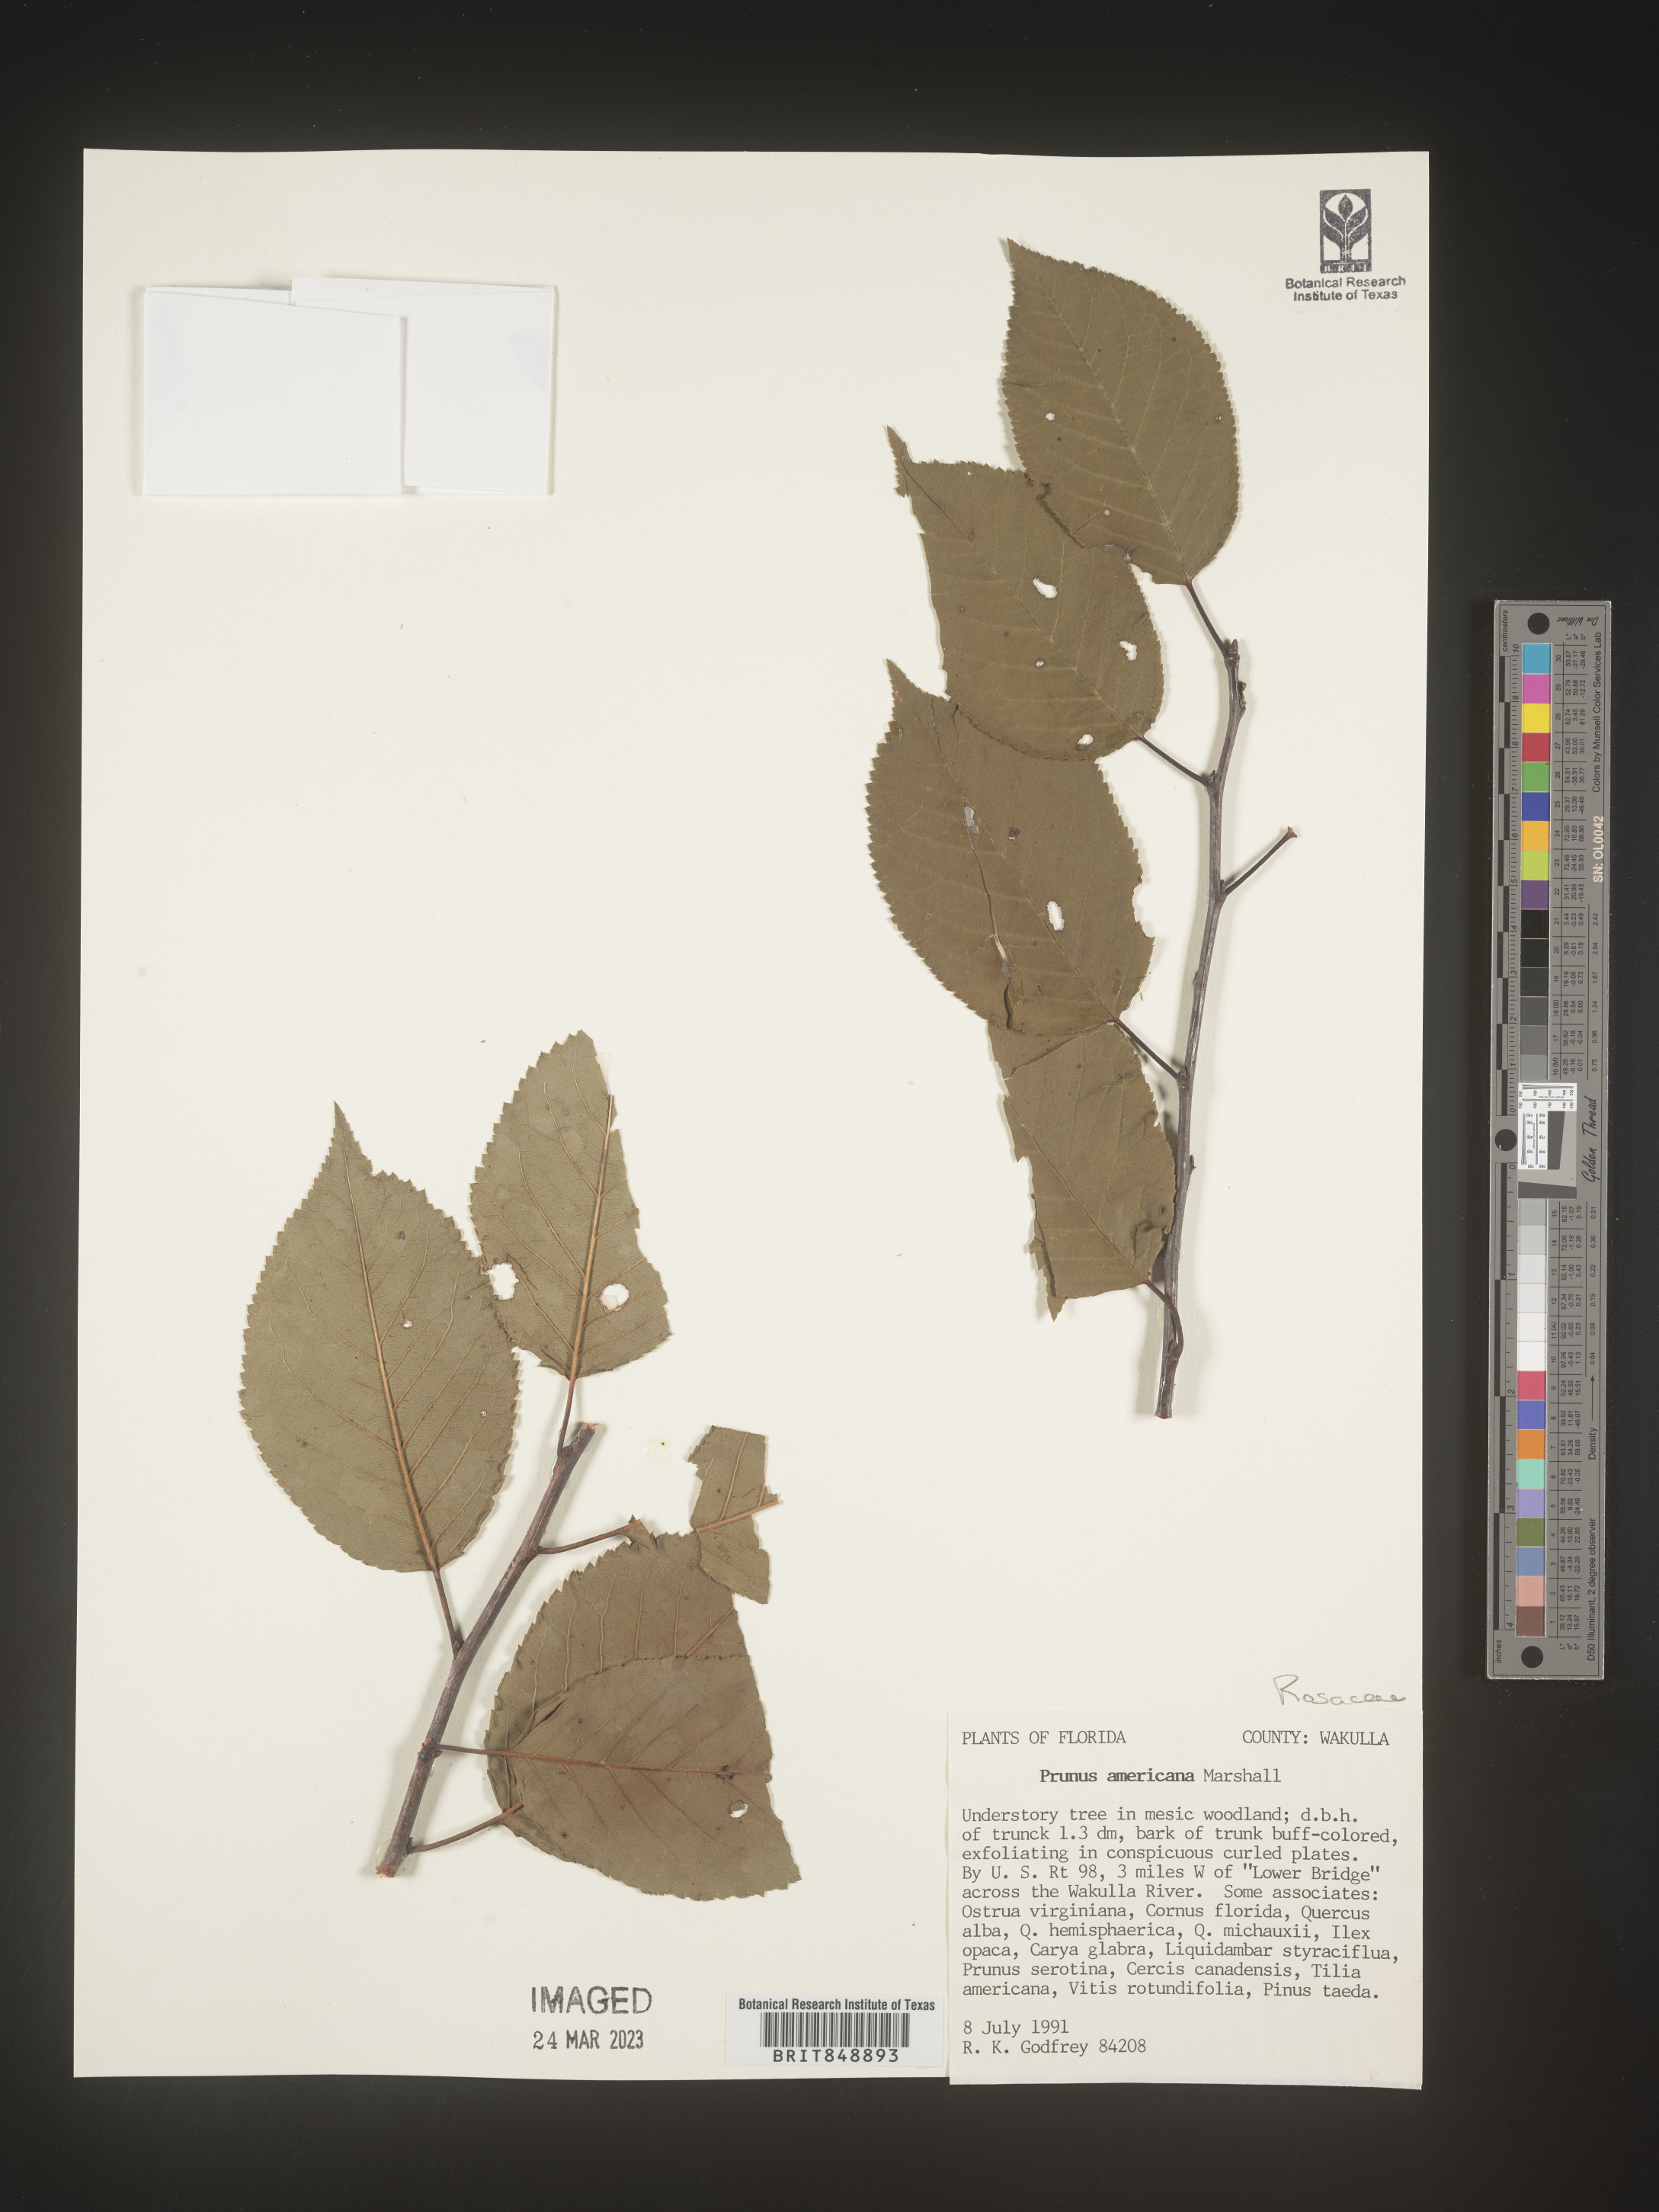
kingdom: Plantae
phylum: Tracheophyta
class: Magnoliopsida
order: Rosales
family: Rosaceae
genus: Prunus
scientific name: Prunus americana
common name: American plum
